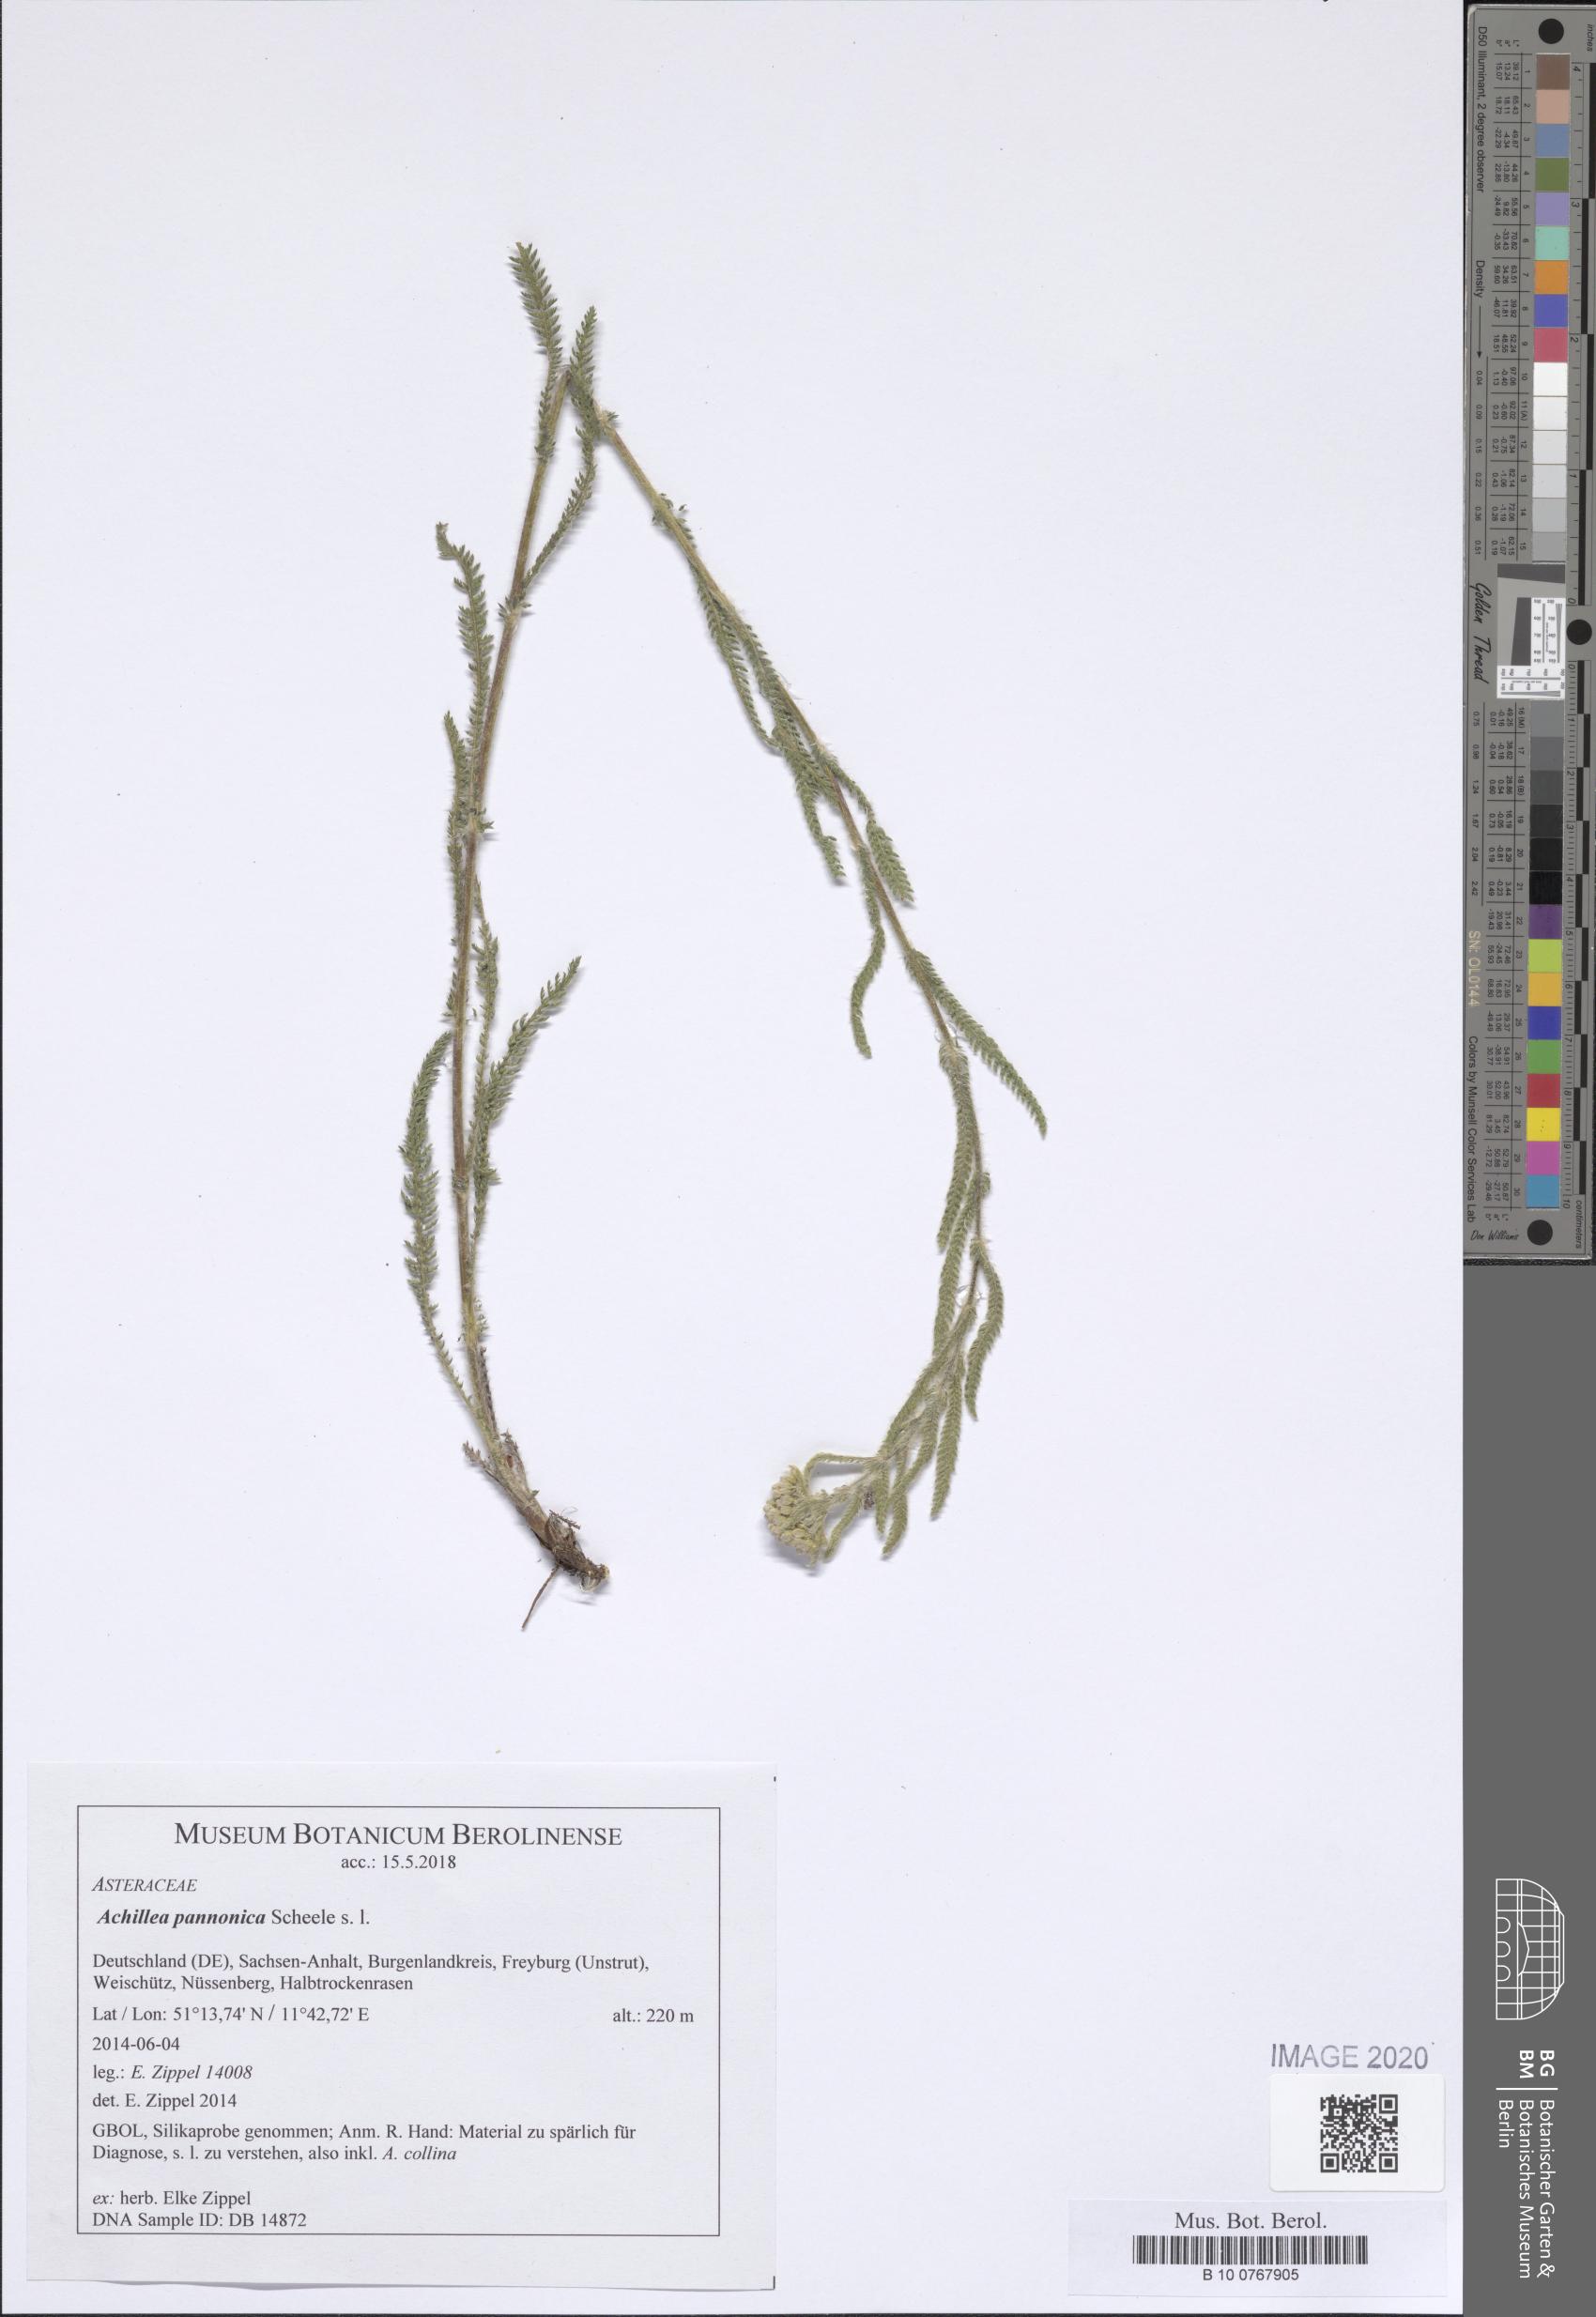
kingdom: Plantae
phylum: Tracheophyta
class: Magnoliopsida
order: Asterales
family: Asteraceae
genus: Achillea
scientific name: Achillea pannonica
